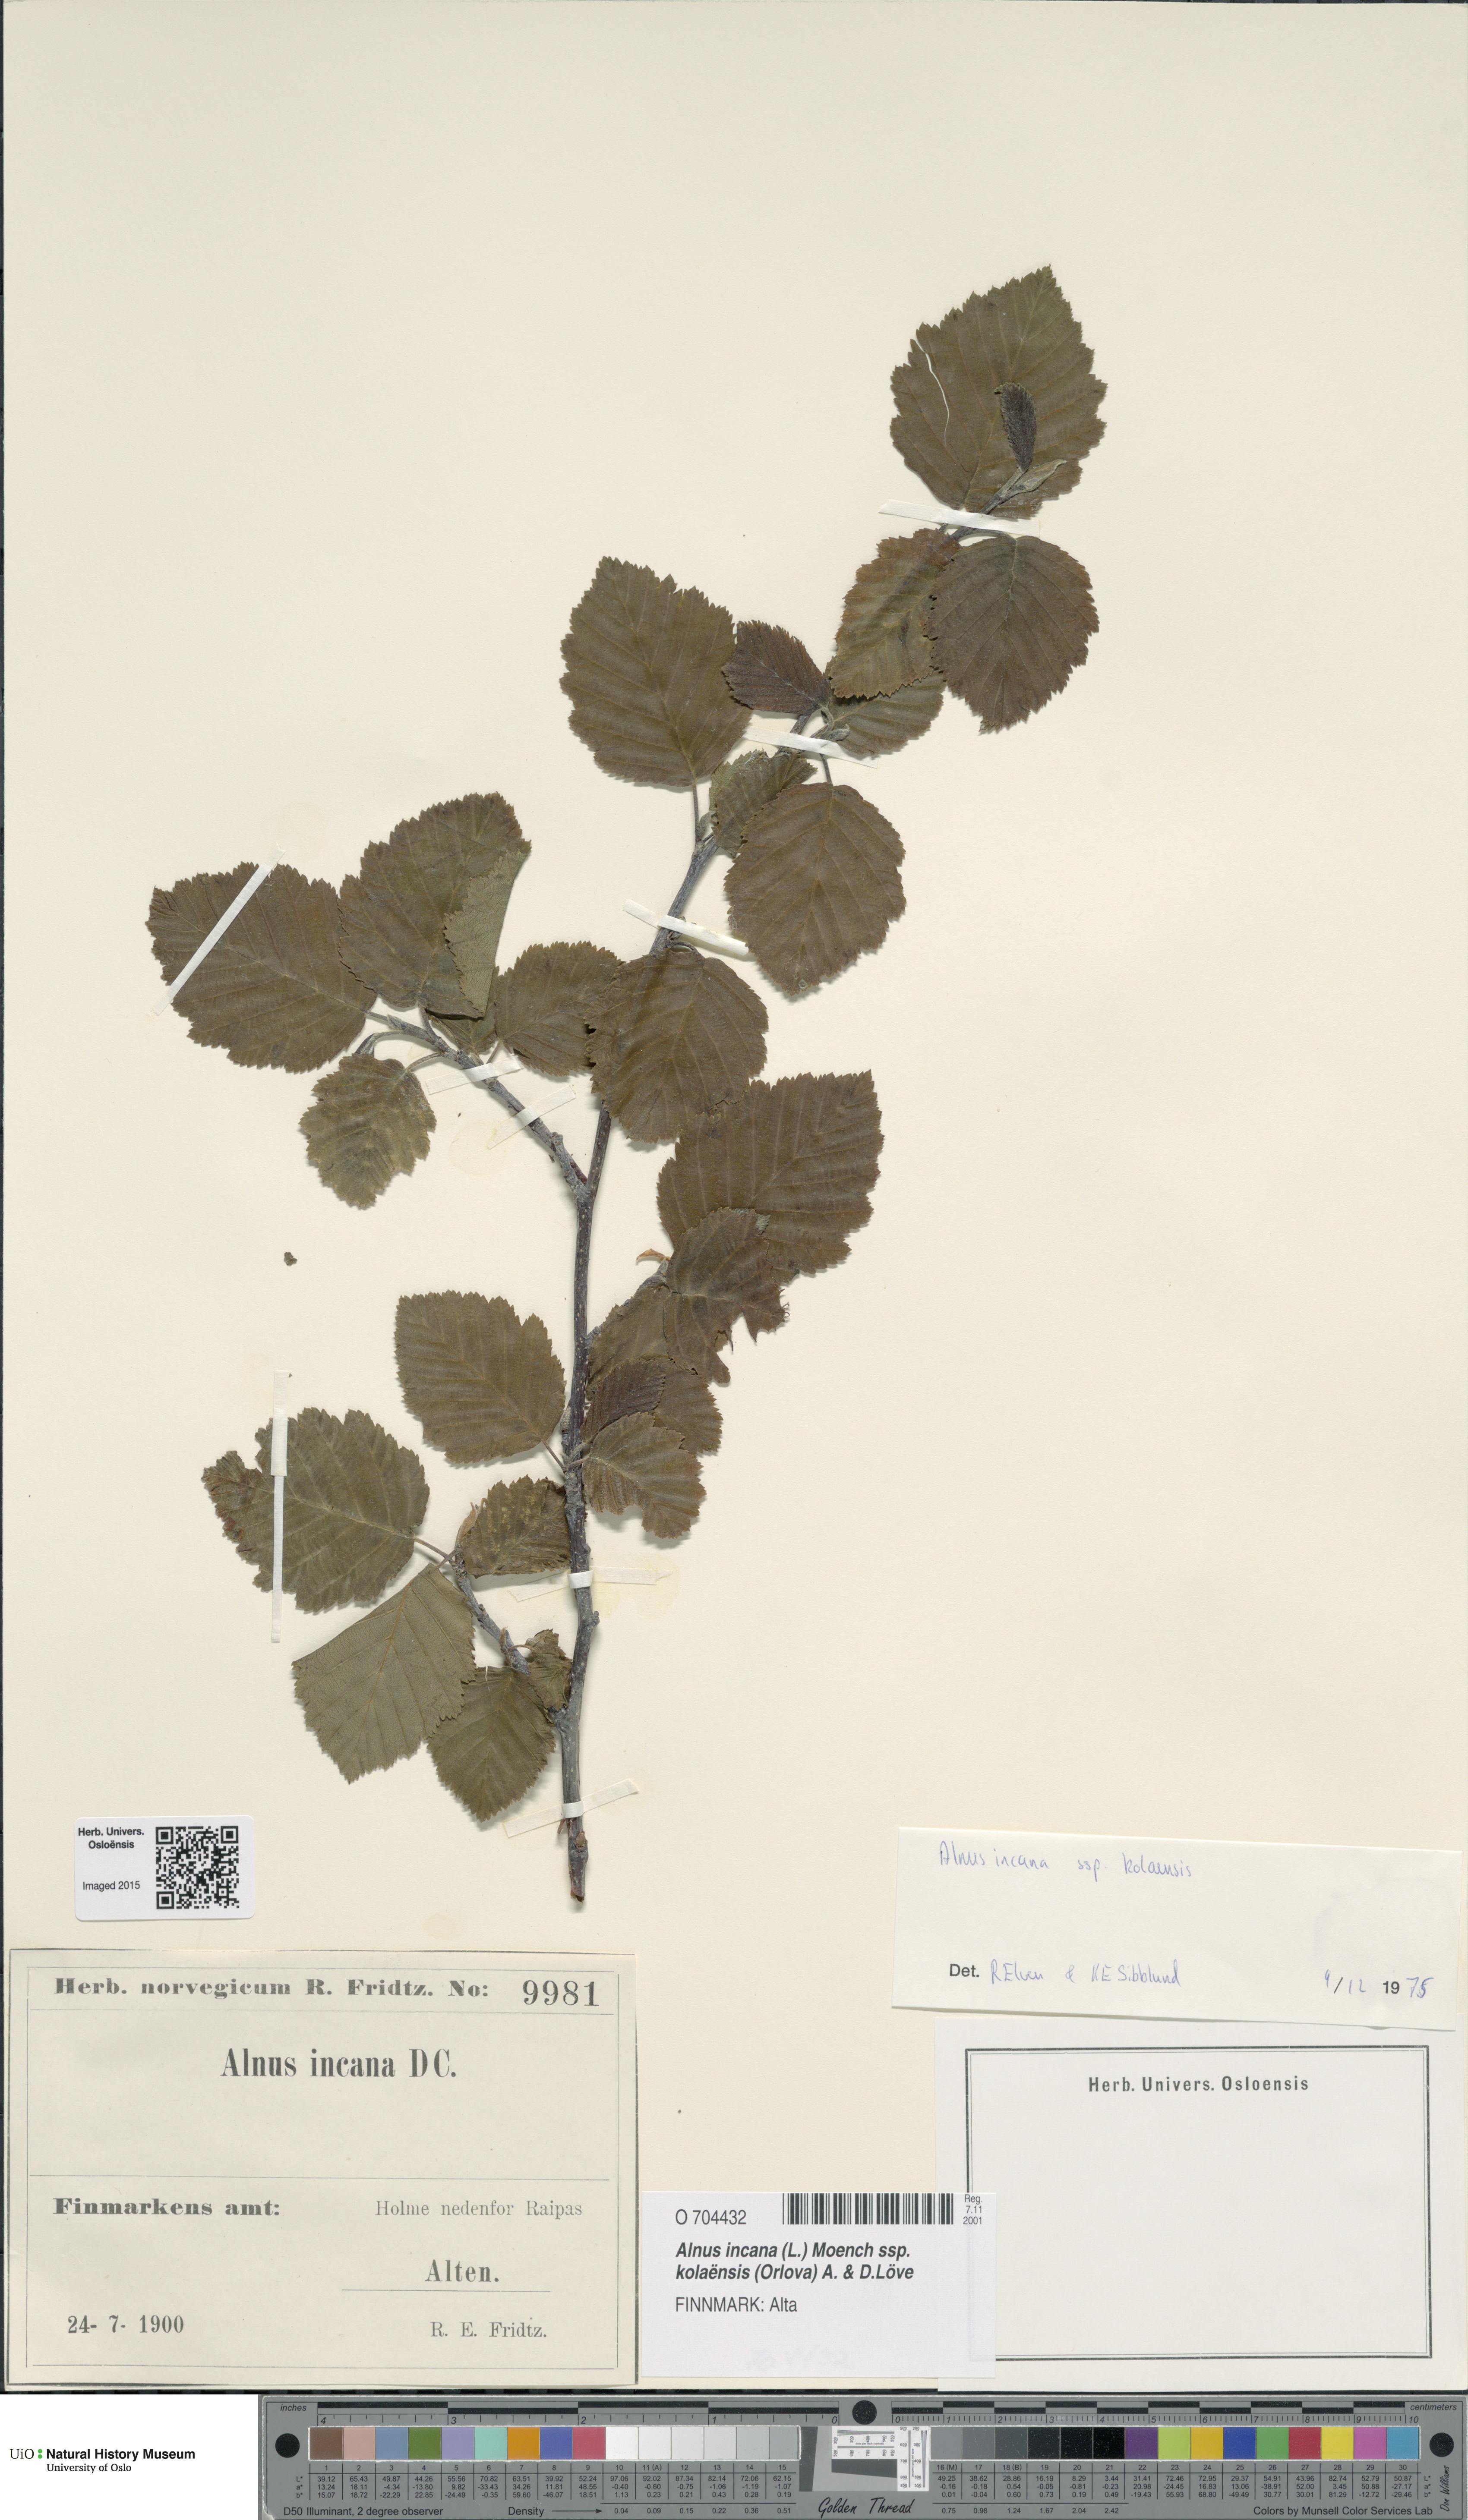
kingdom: Plantae
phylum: Tracheophyta
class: Magnoliopsida
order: Fagales
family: Betulaceae
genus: Alnus
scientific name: Alnus incana
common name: Grey alder
